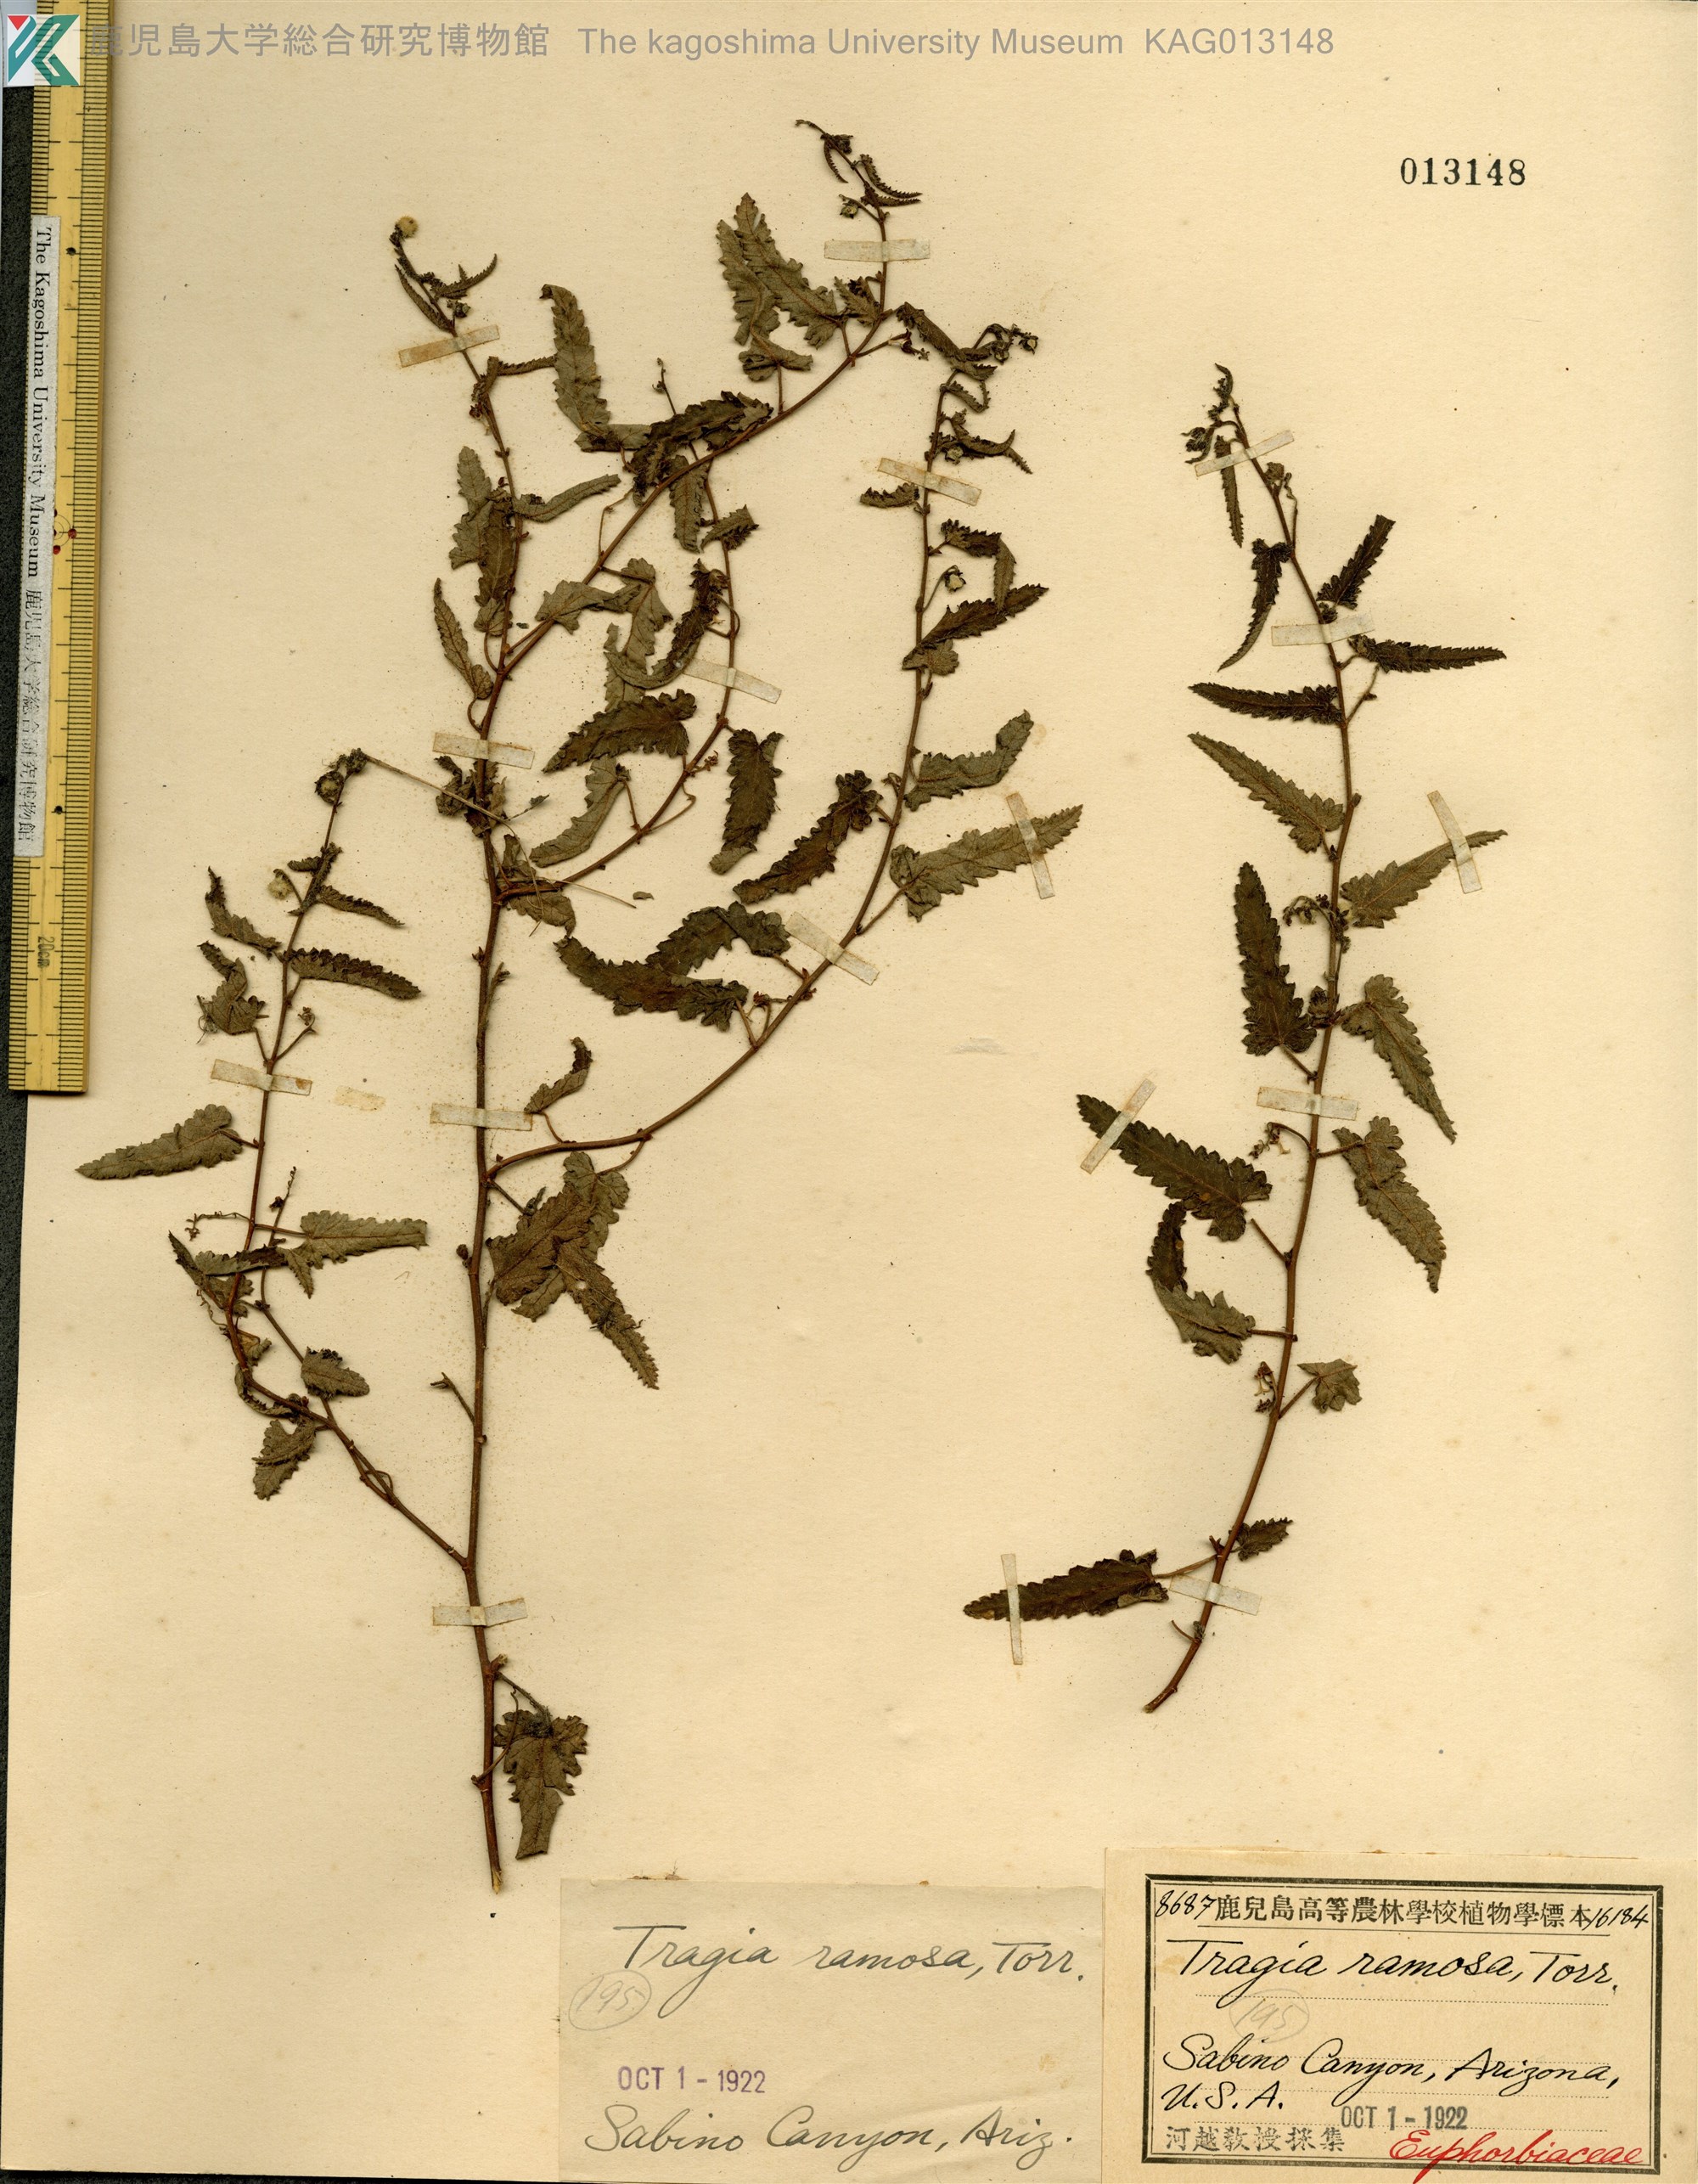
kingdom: Plantae
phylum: Tracheophyta
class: Magnoliopsida
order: Malpighiales
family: Euphorbiaceae
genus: Tragia
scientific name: Tragia ramosa
